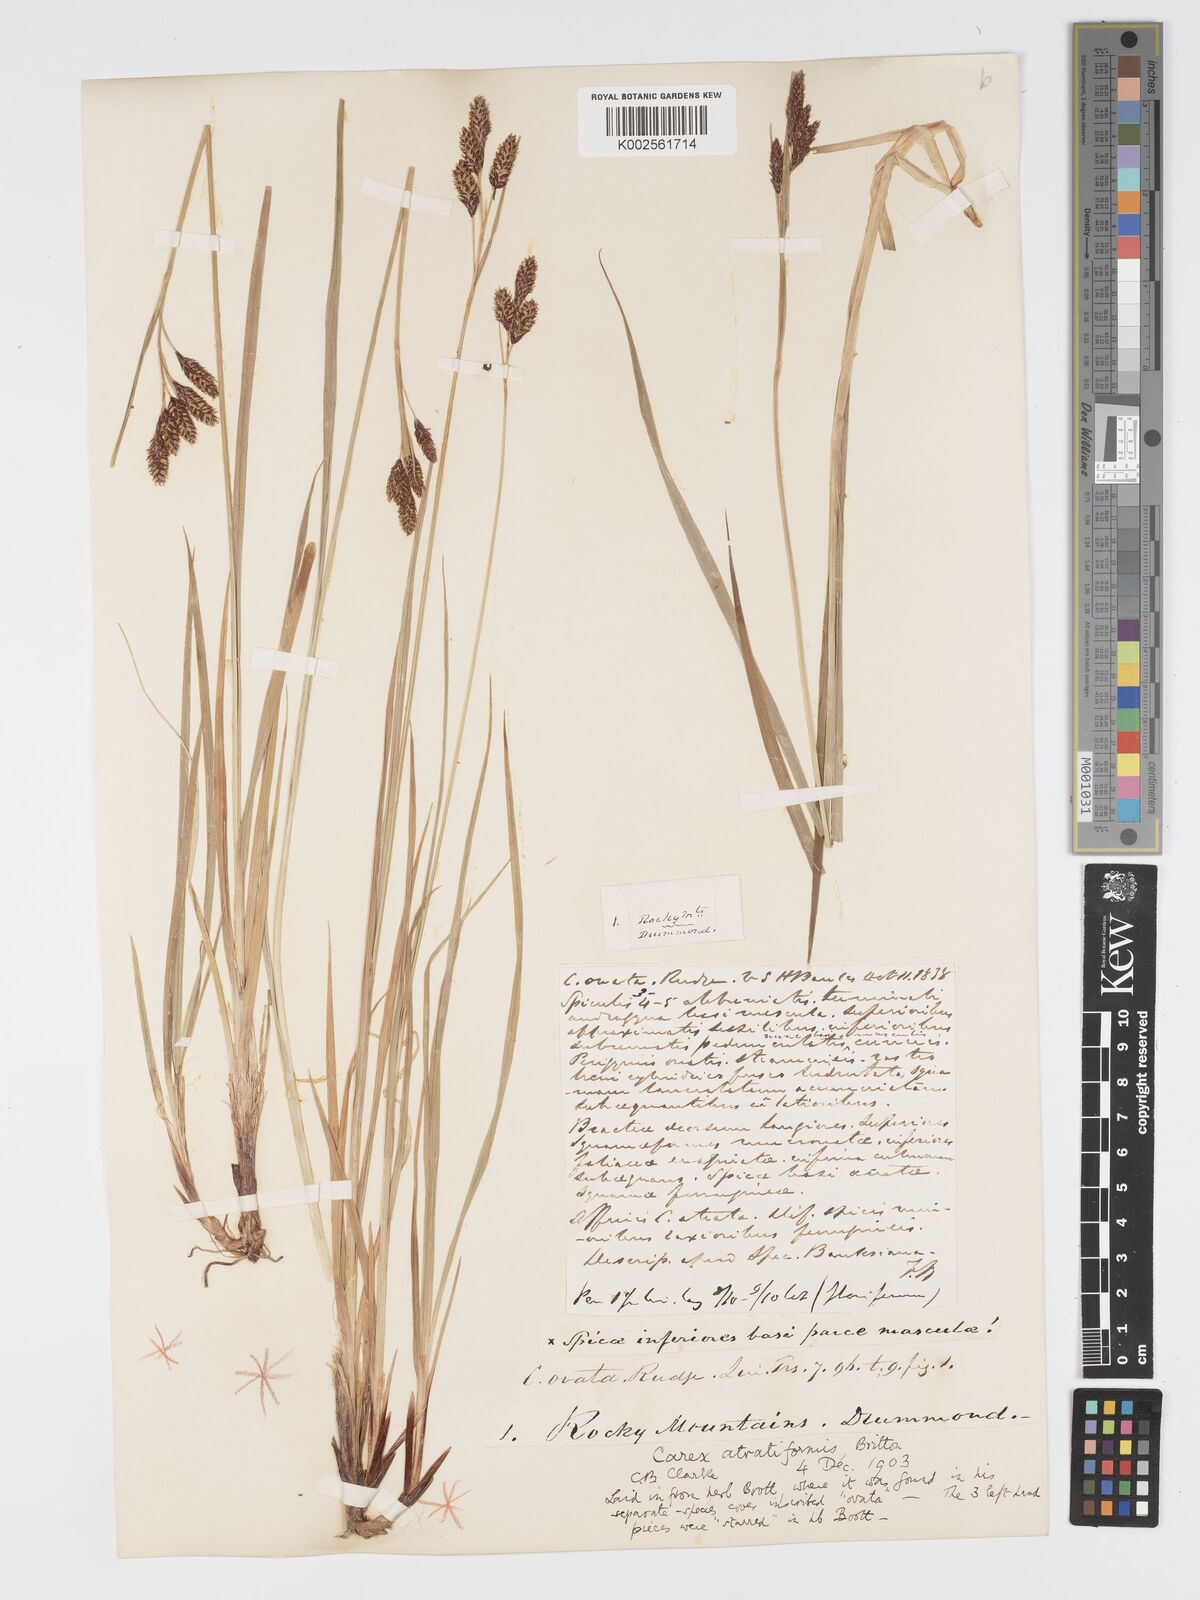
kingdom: Plantae
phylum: Tracheophyta
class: Liliopsida
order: Poales
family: Cyperaceae
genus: Carex
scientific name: Carex atratiformis
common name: Black sedge
